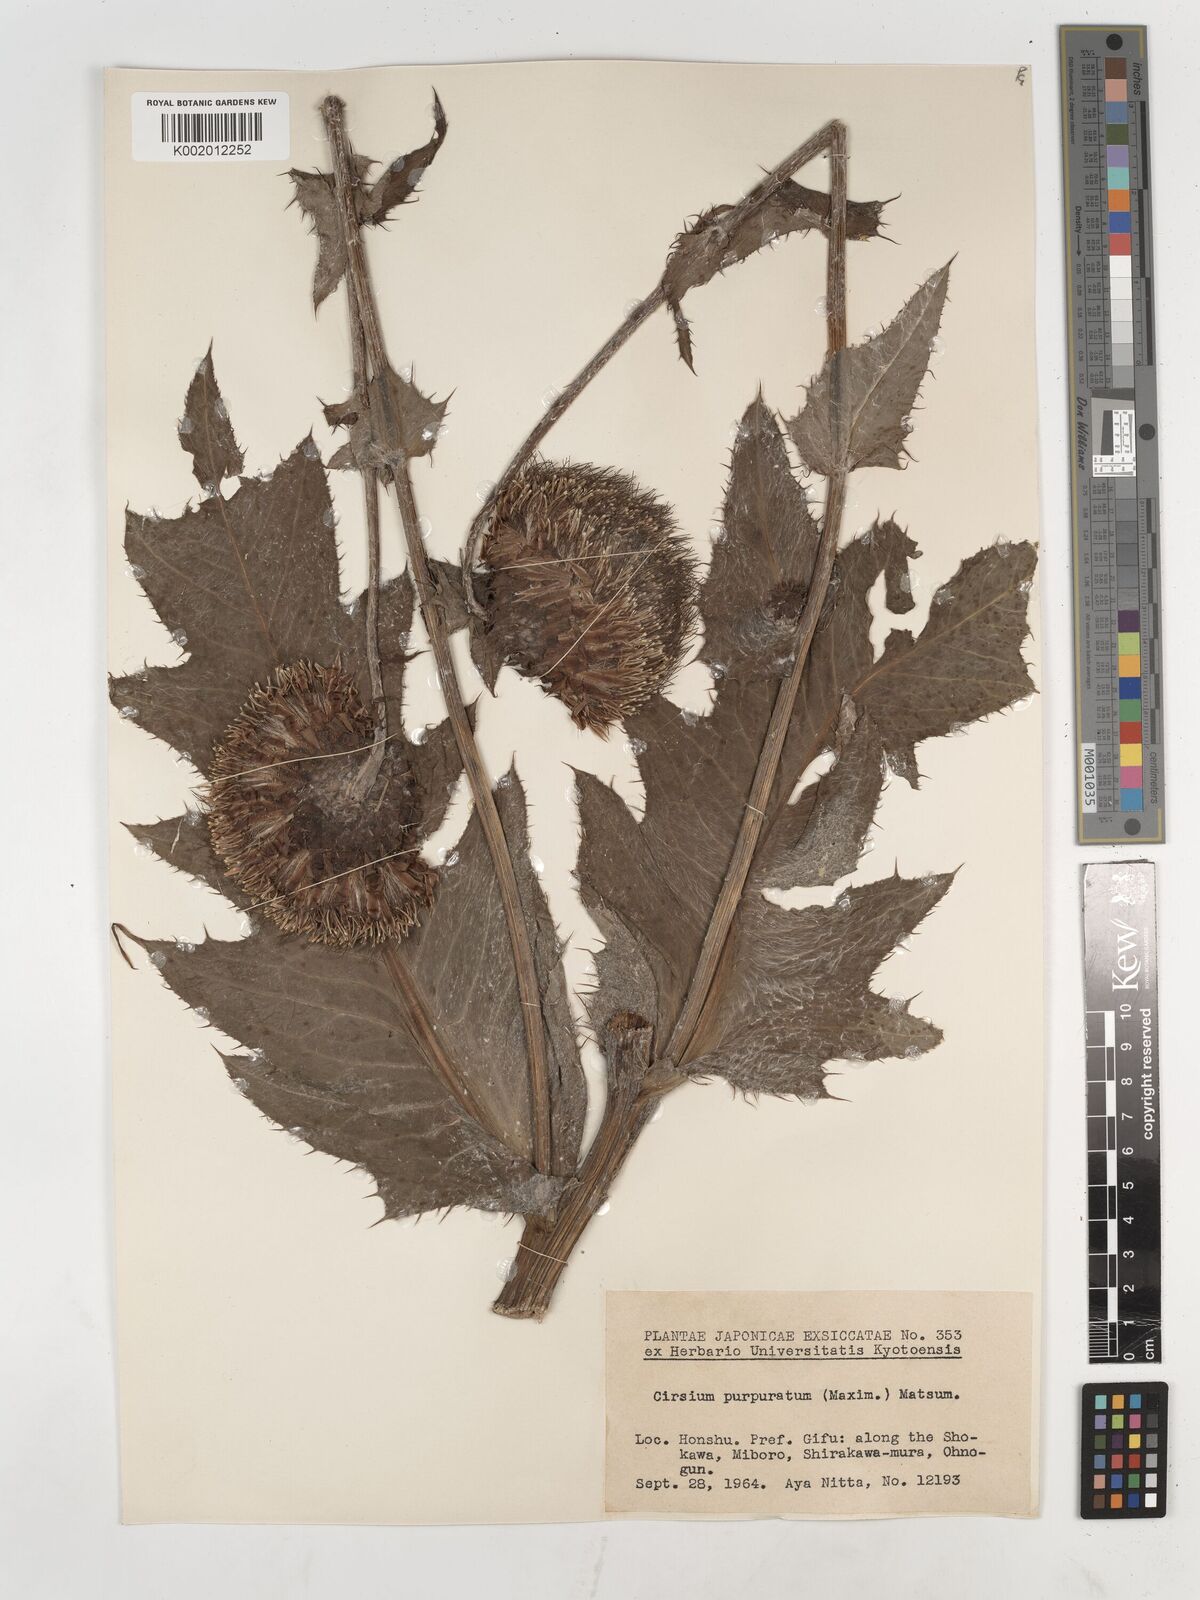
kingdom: Plantae
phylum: Tracheophyta
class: Magnoliopsida
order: Asterales
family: Asteraceae
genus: Cirsium
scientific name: Cirsium purpuratum
